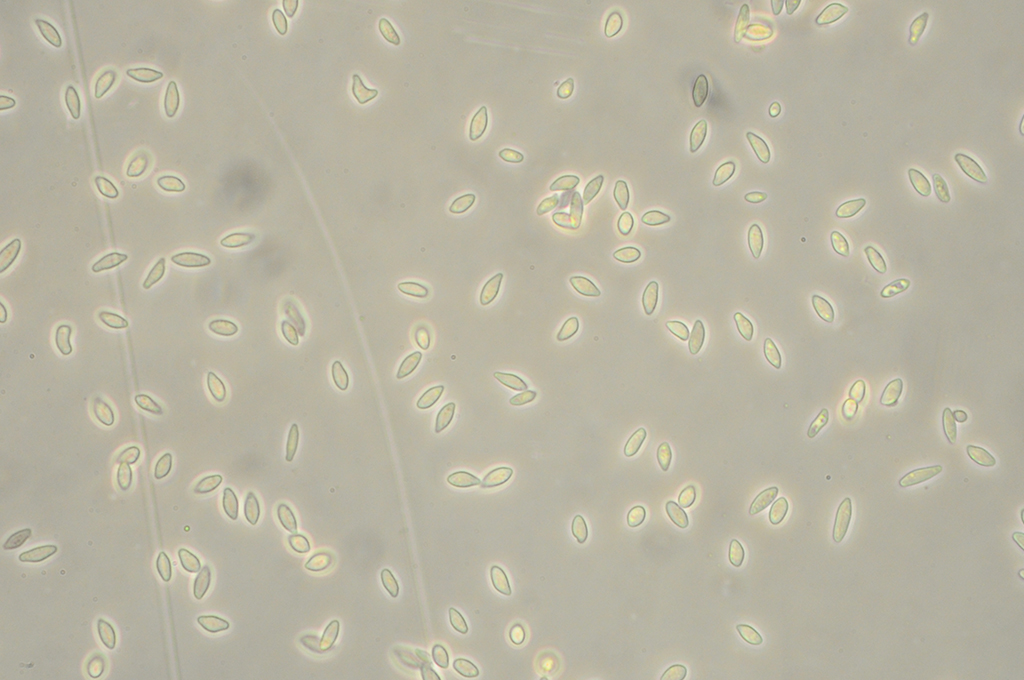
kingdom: Fungi
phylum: Ascomycota
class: Sordariomycetes
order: Hypocreales
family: Nectriaceae
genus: Volutella
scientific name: Volutella arundinis
